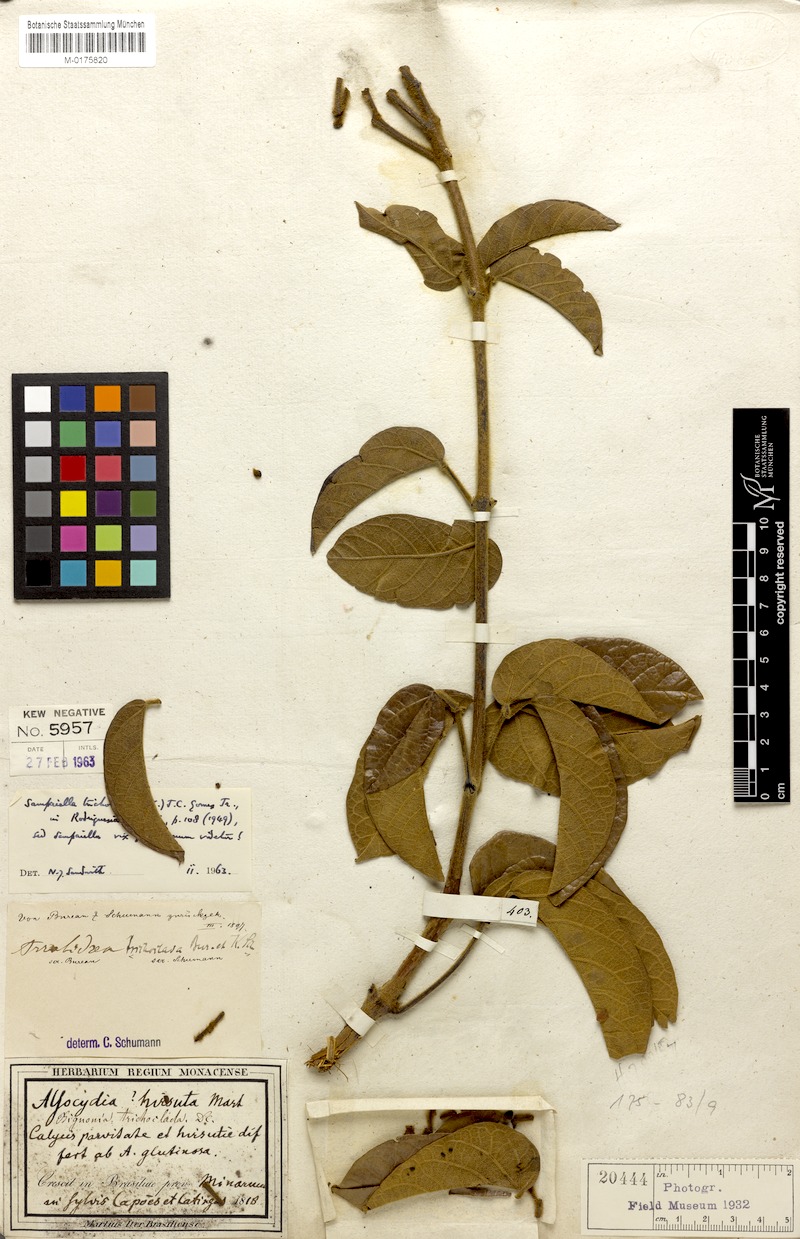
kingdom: Plantae
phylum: Tracheophyta
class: Magnoliopsida
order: Lamiales
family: Bignoniaceae
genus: Fridericia
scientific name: Fridericia trichoclada
